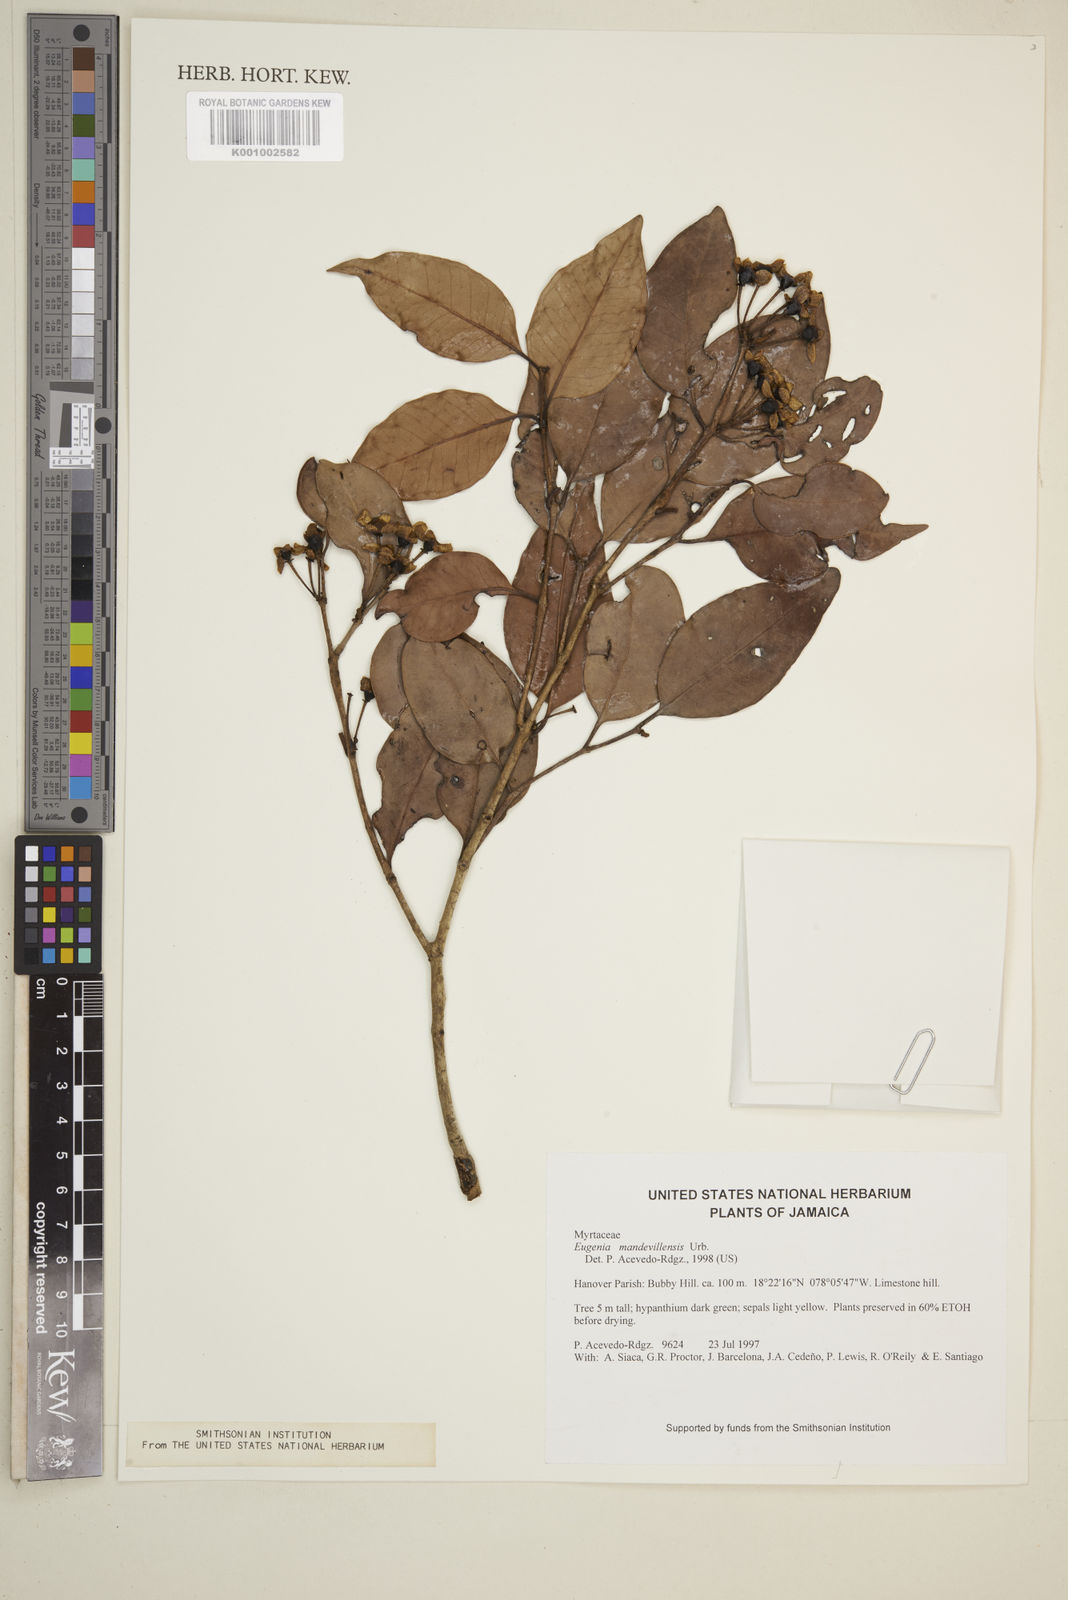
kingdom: Plantae
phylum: Tracheophyta
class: Magnoliopsida
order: Myrtales
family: Myrtaceae
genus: Eugenia
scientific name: Eugenia mandevillensis
